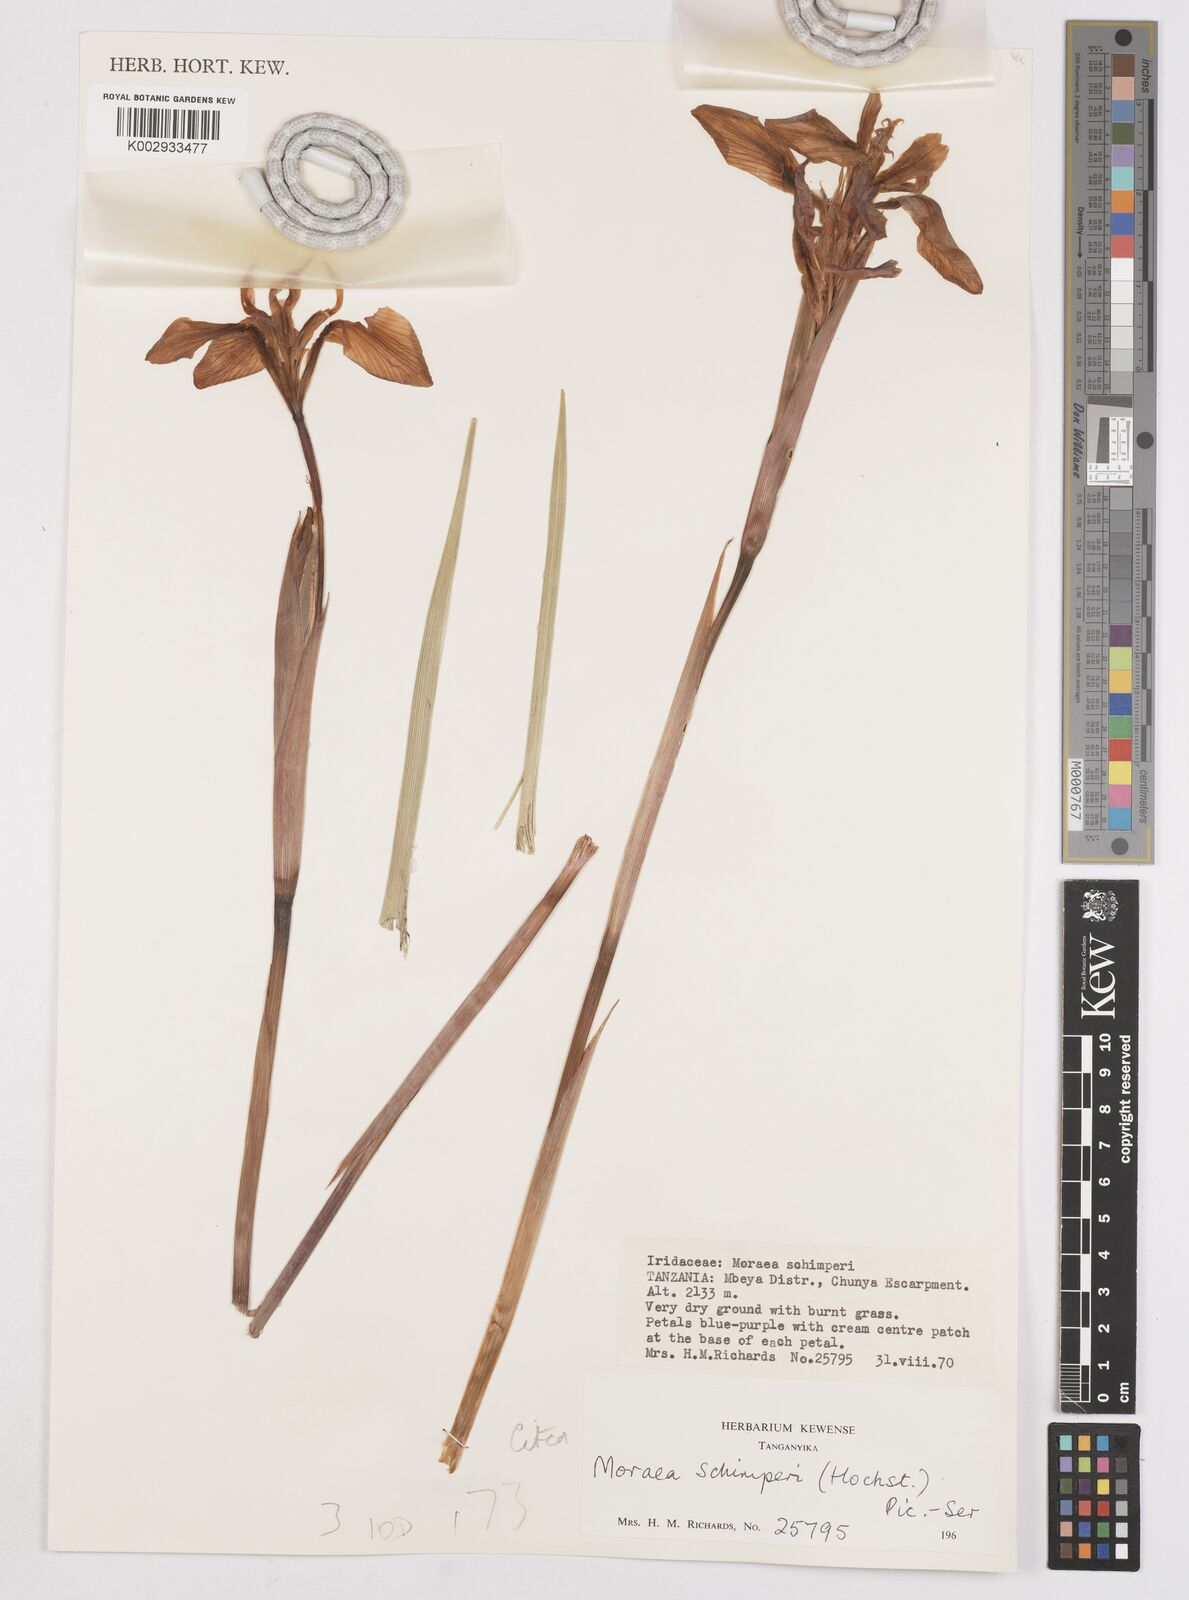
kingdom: Plantae
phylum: Tracheophyta
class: Liliopsida
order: Asparagales
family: Iridaceae
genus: Moraea
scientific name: Moraea schimperi
